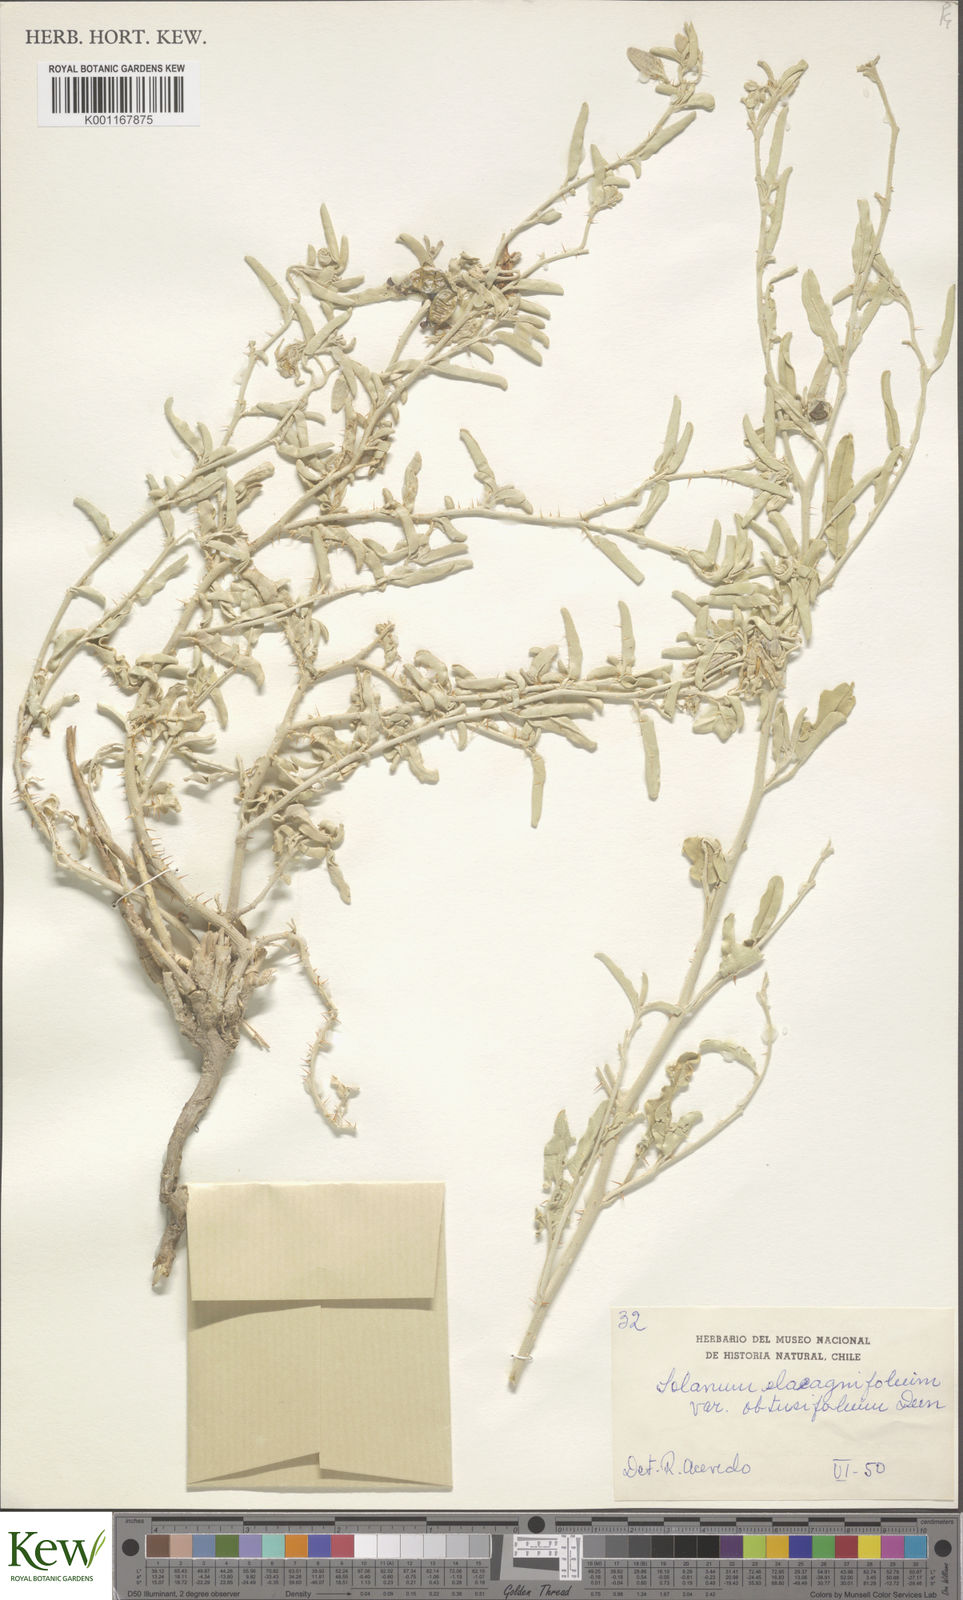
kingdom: Plantae
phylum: Tracheophyta
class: Magnoliopsida
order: Solanales
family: Solanaceae
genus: Solanum
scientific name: Solanum elaeagnifolium
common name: Silverleaf nightshade
